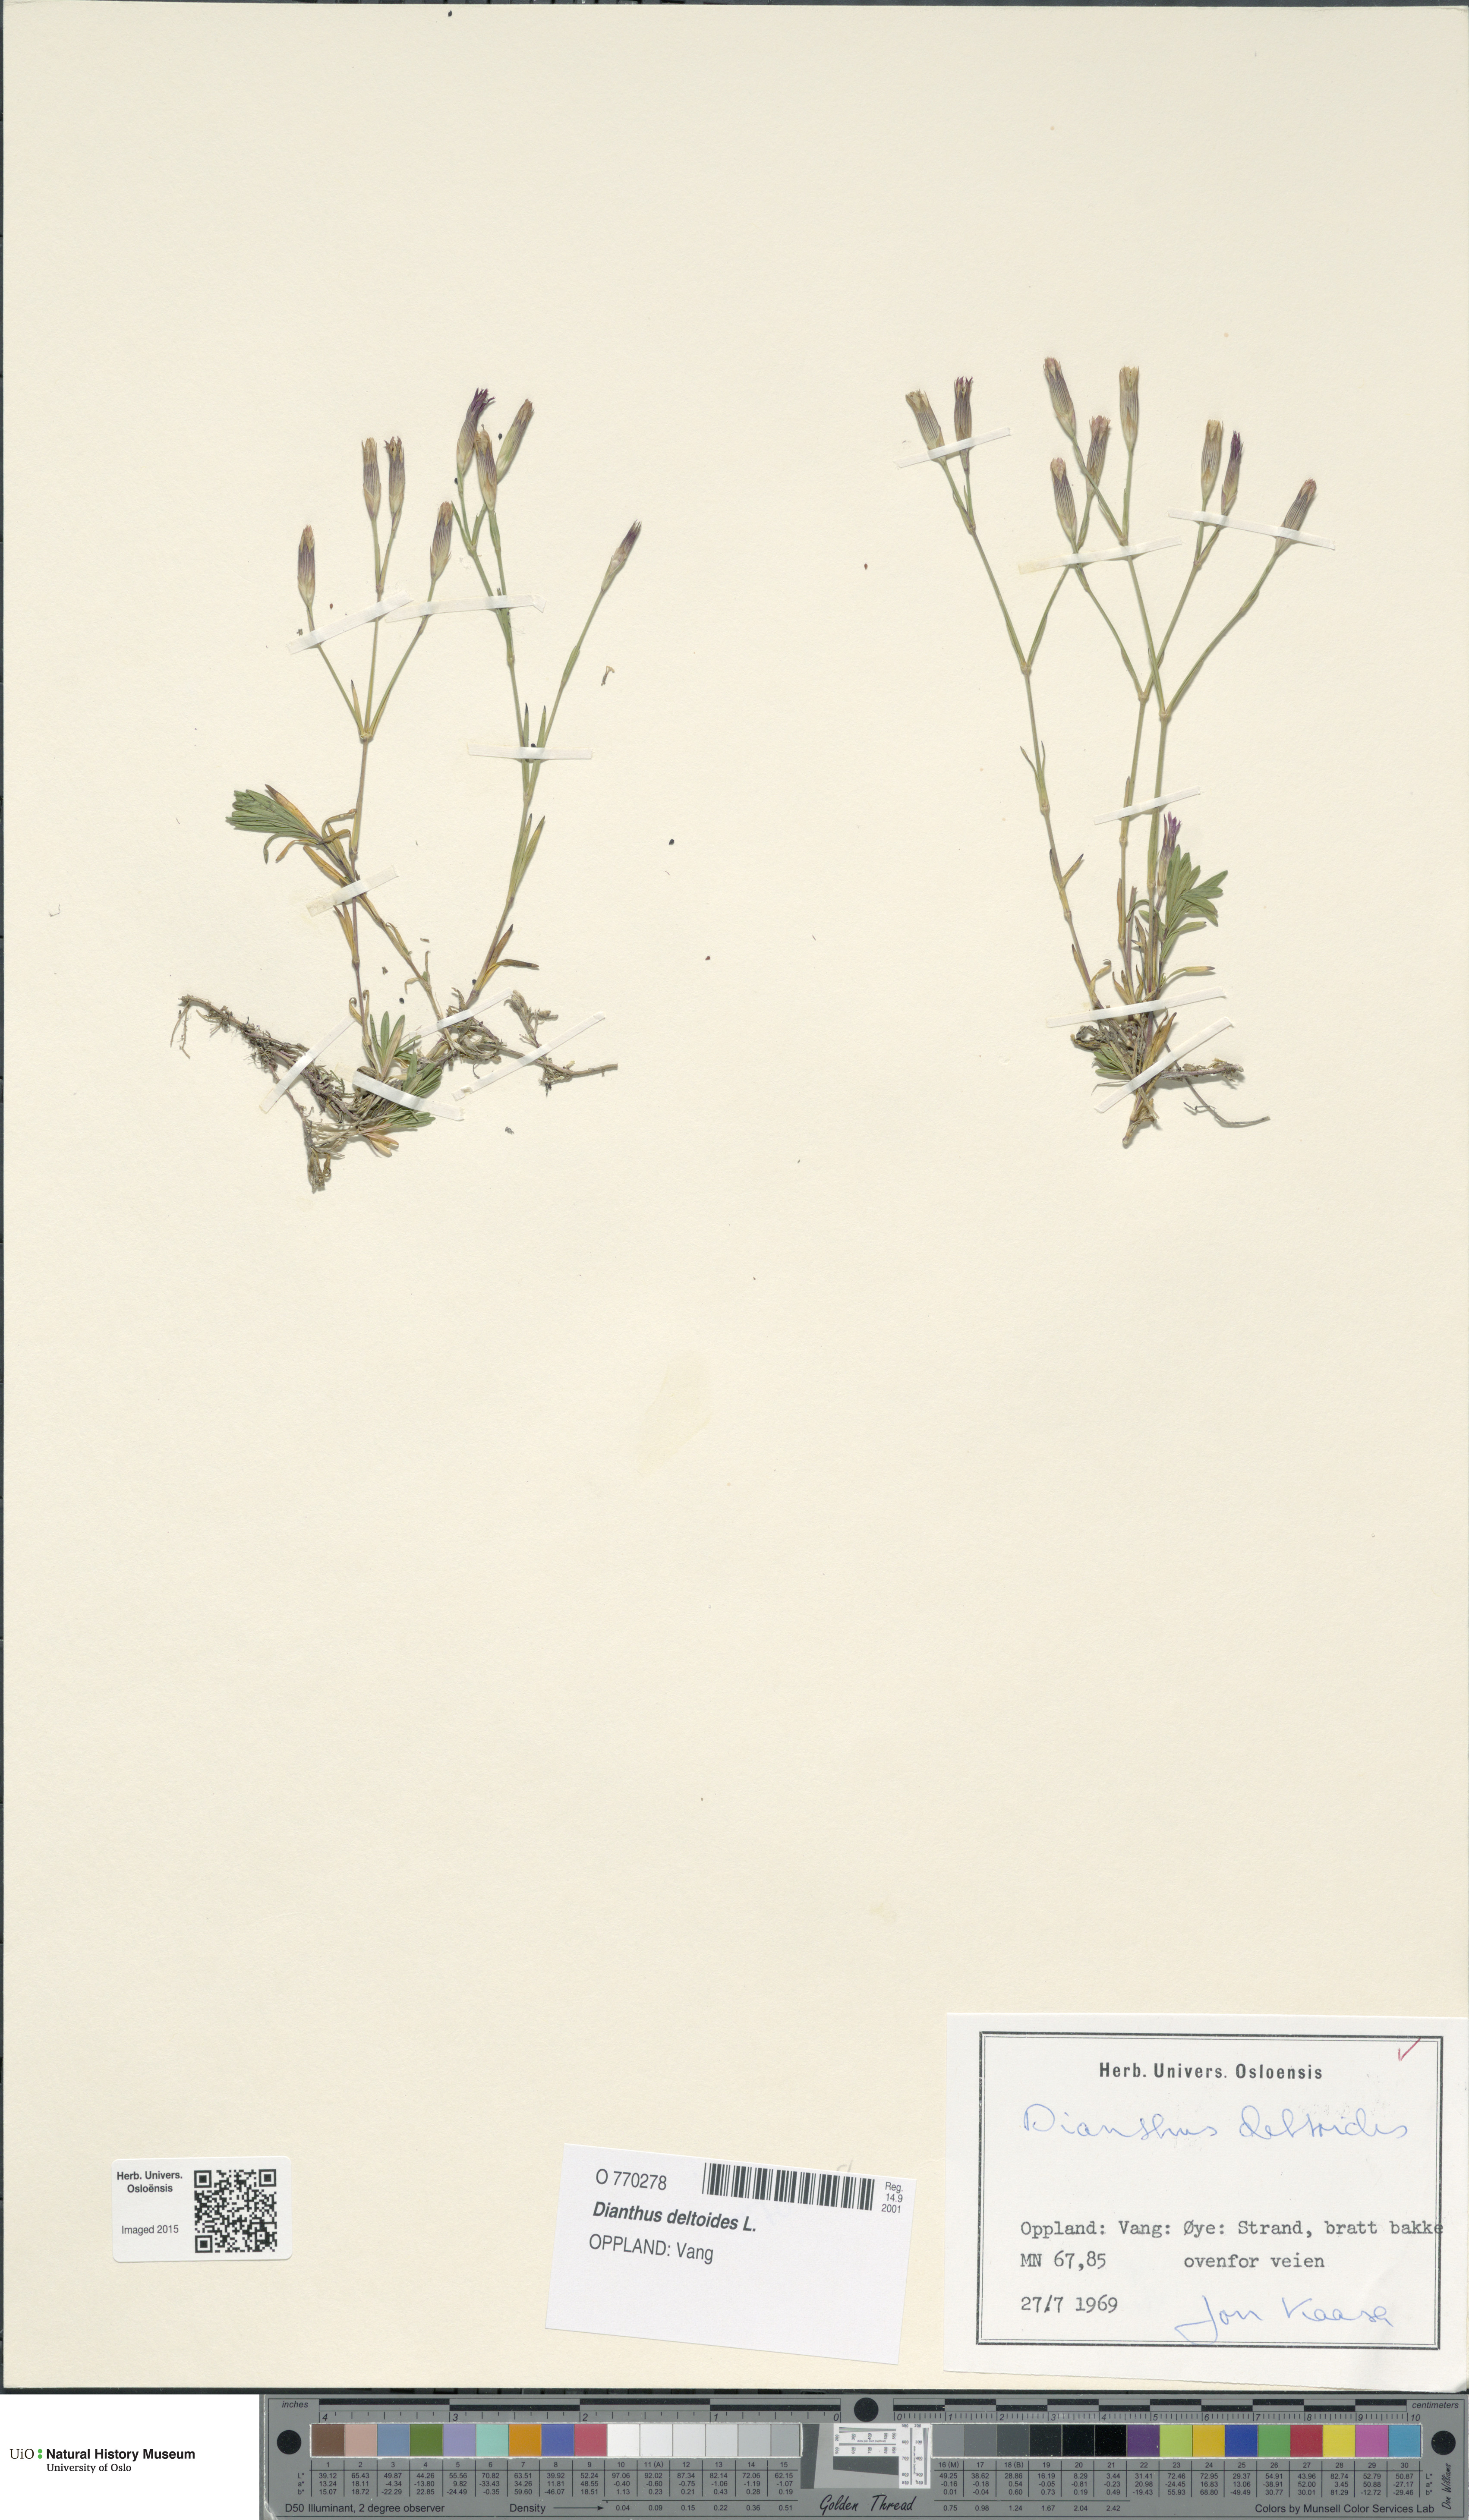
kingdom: Plantae
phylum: Tracheophyta
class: Magnoliopsida
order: Caryophyllales
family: Caryophyllaceae
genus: Dianthus
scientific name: Dianthus deltoides
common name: Maiden pink
